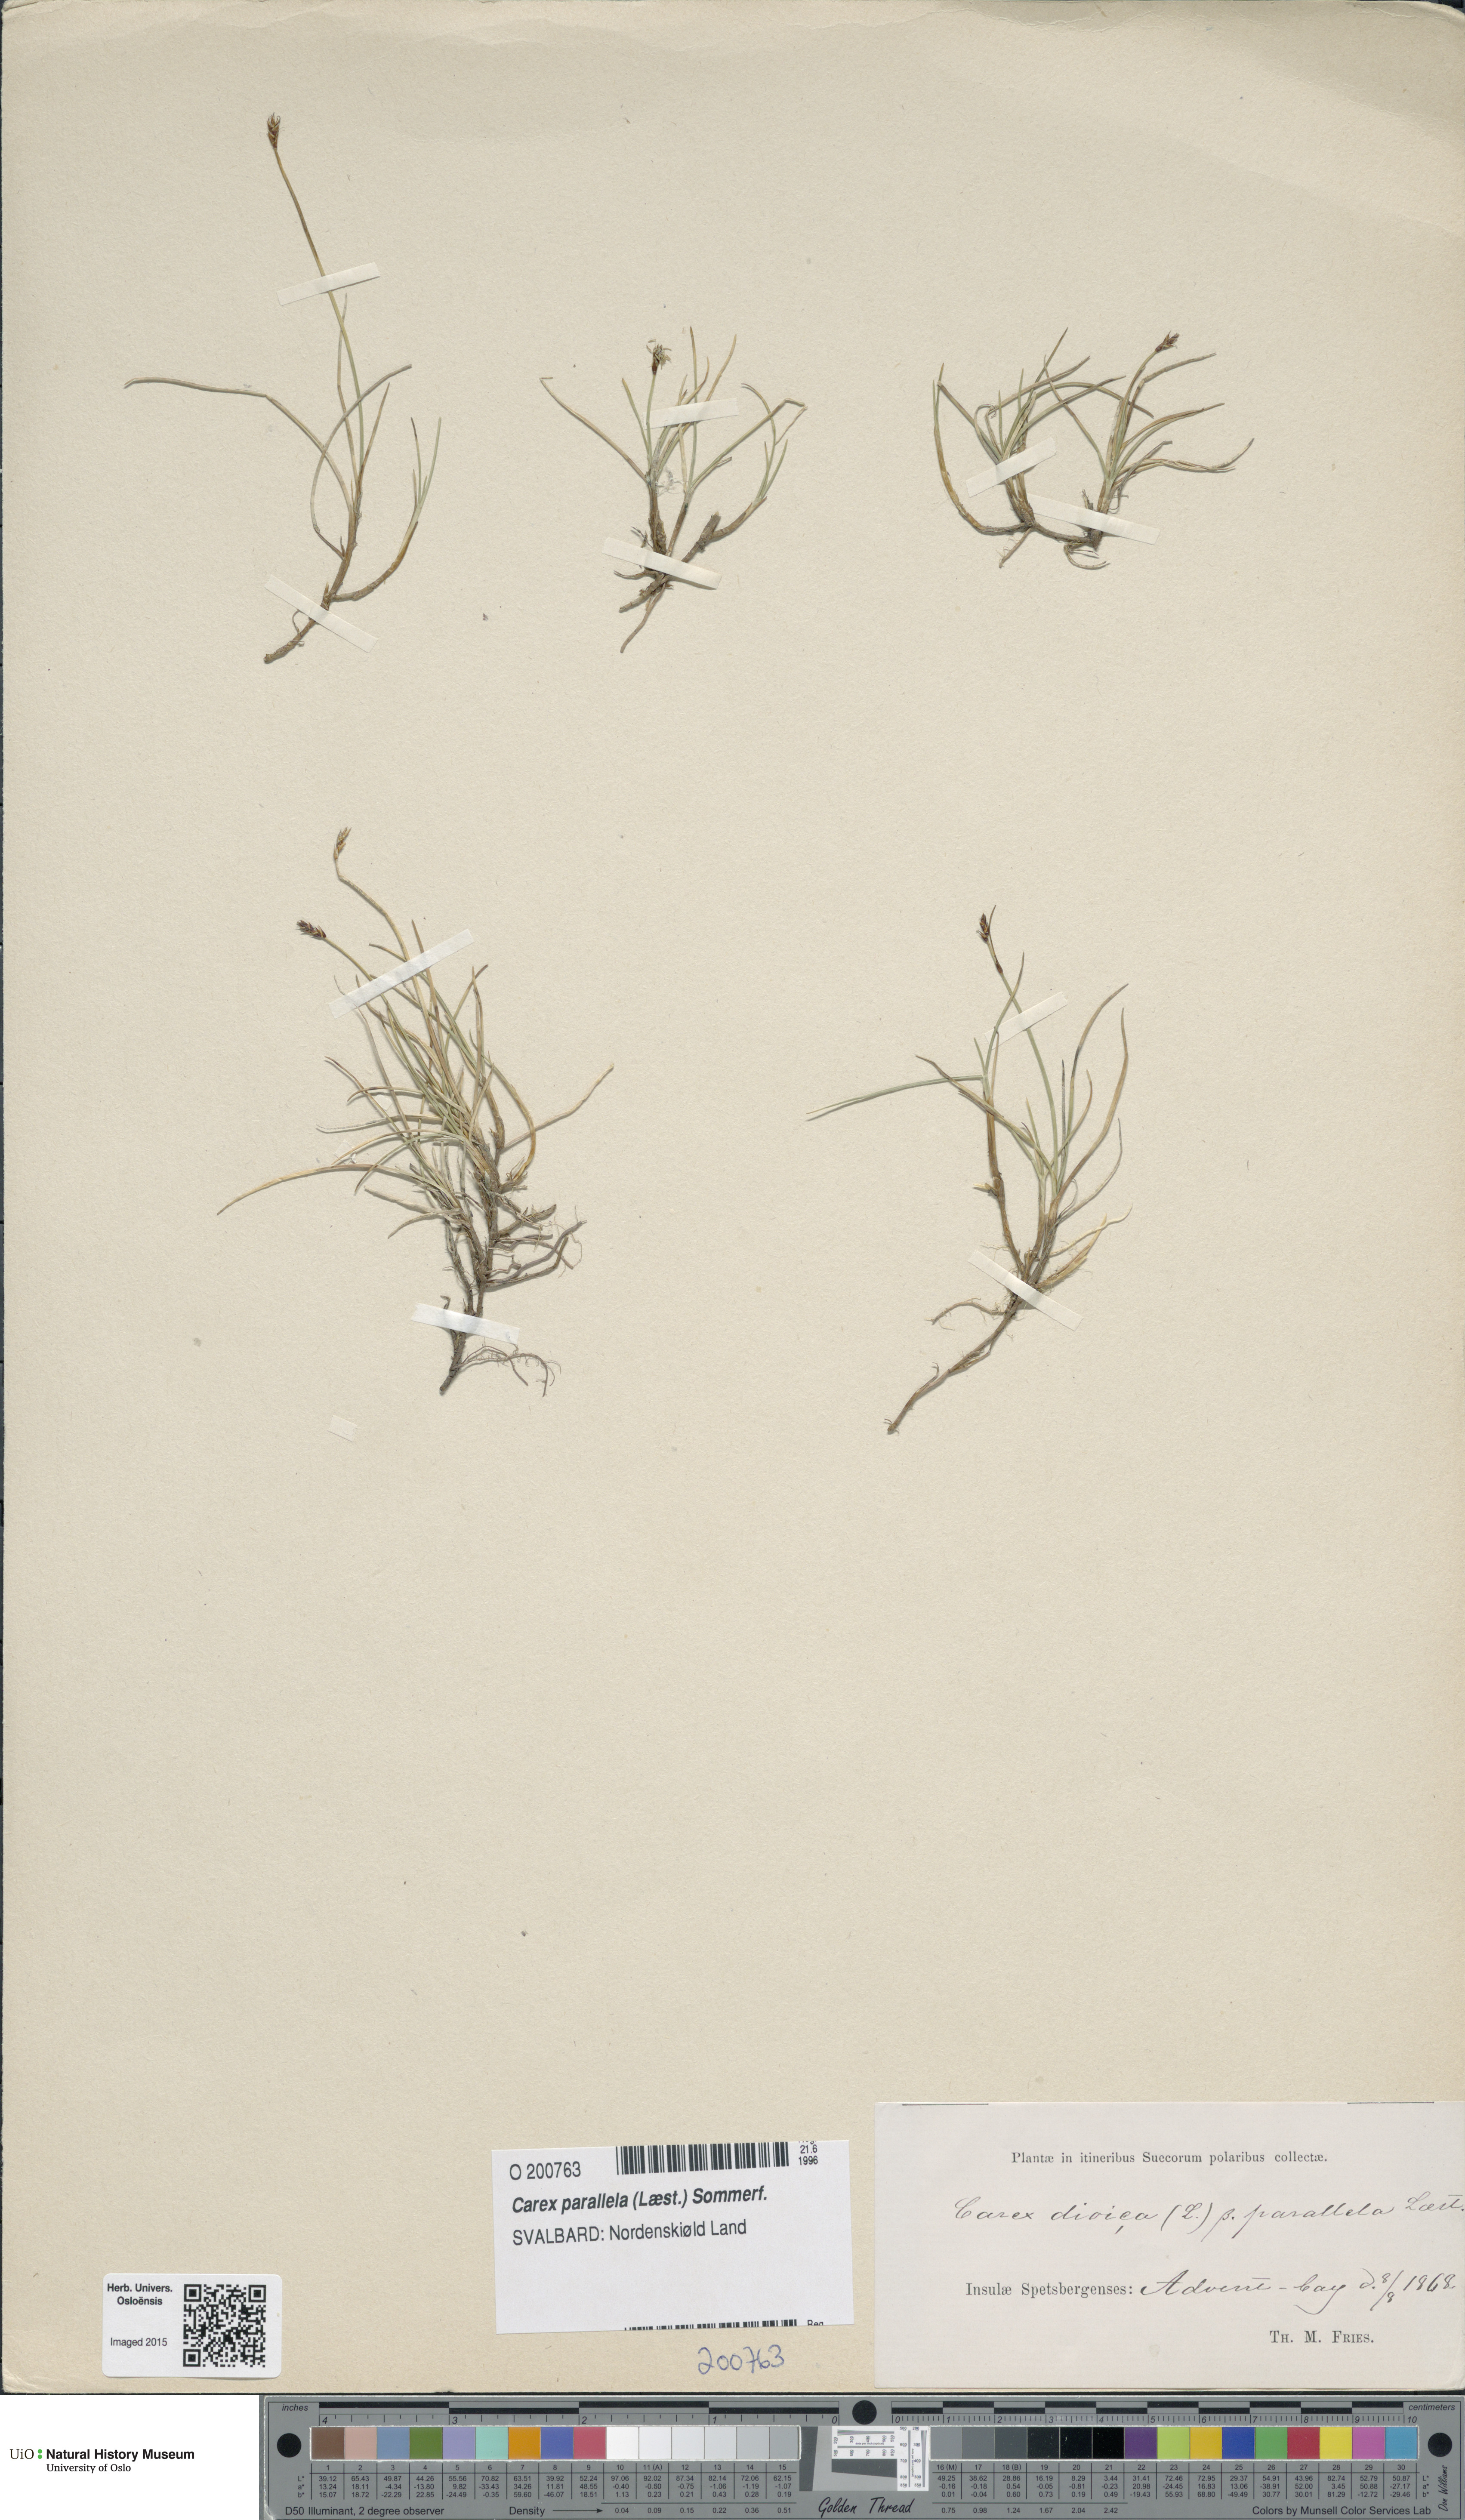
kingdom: Plantae
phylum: Tracheophyta
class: Liliopsida
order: Poales
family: Cyperaceae
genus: Carex
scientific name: Carex parallela
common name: Parallel sedge
